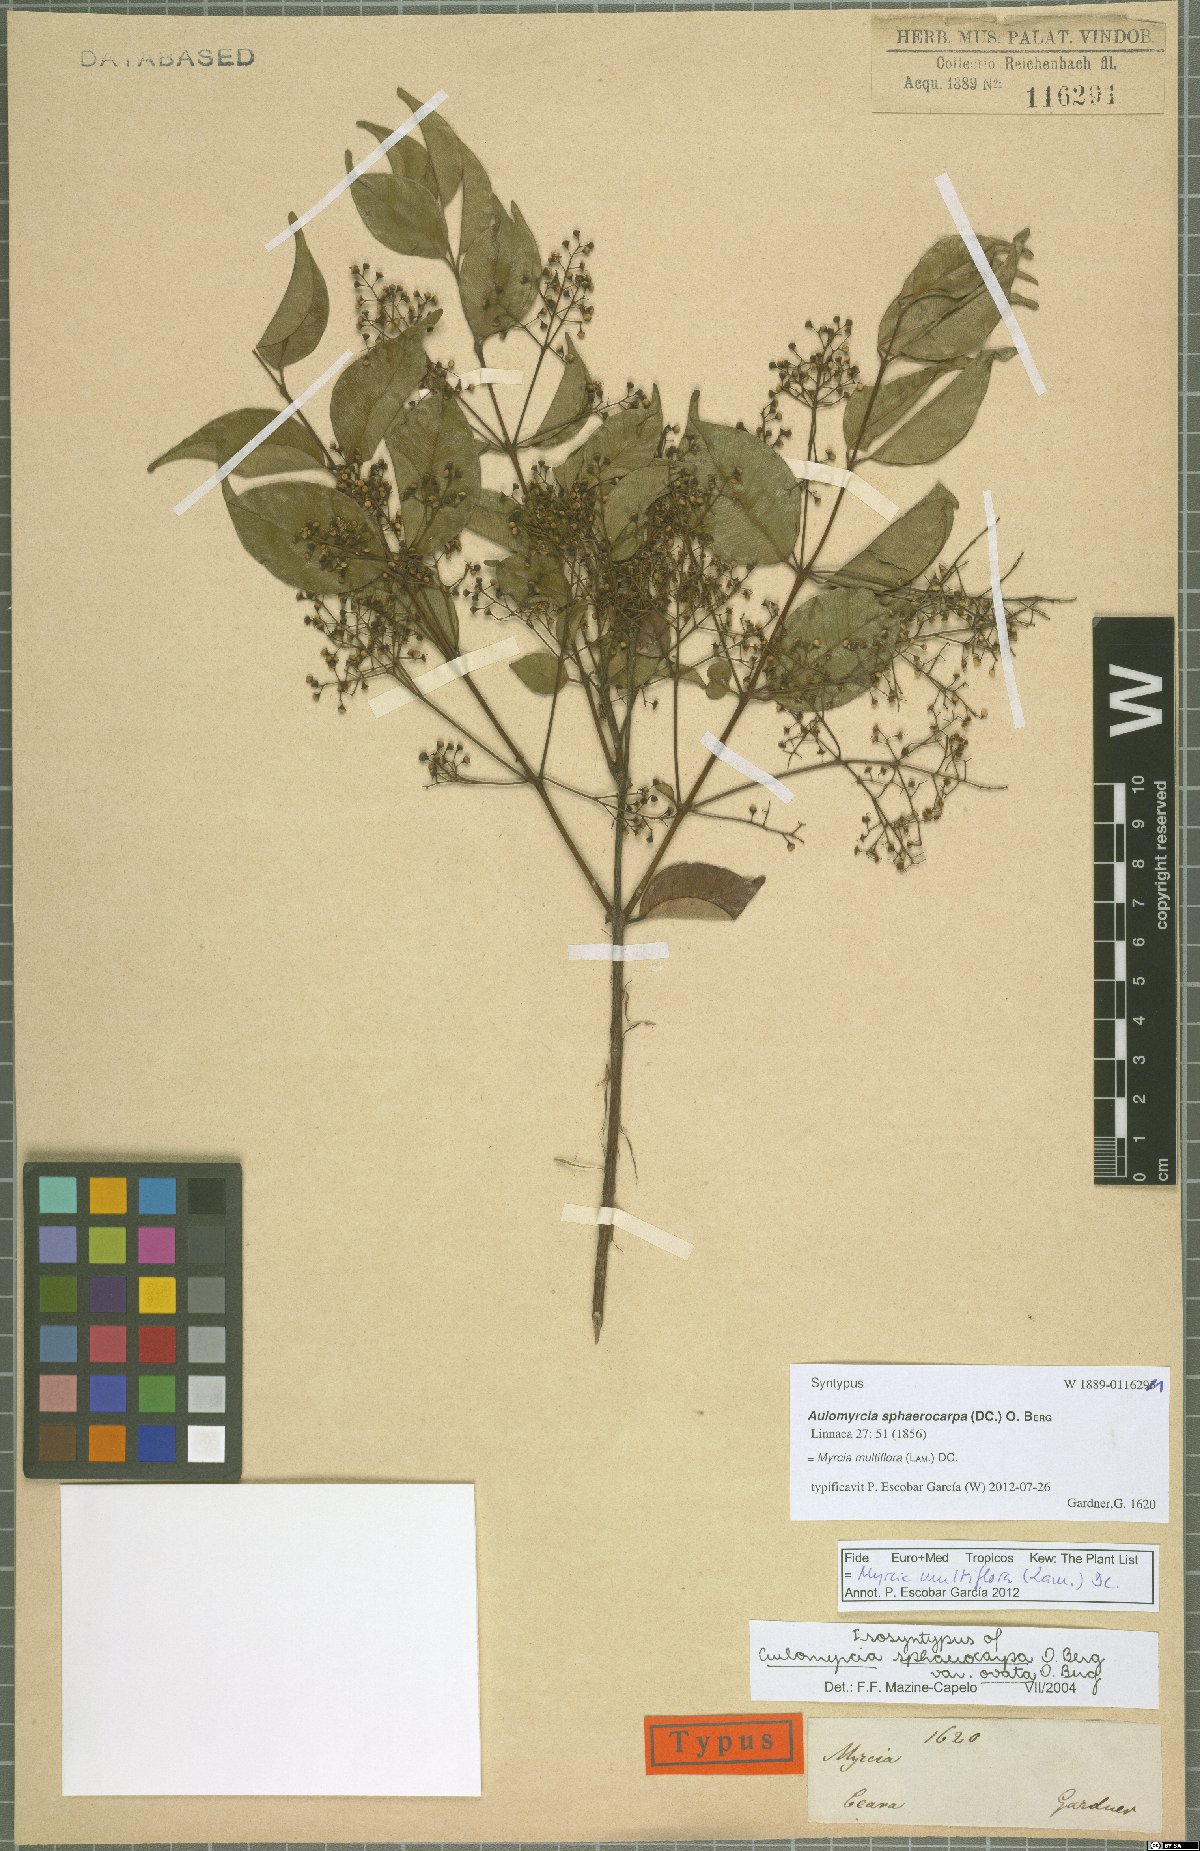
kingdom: Plantae
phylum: Tracheophyta
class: Magnoliopsida
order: Myrtales
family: Myrtaceae
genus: Myrcia
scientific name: Myrcia multiflora
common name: Pedra hume
